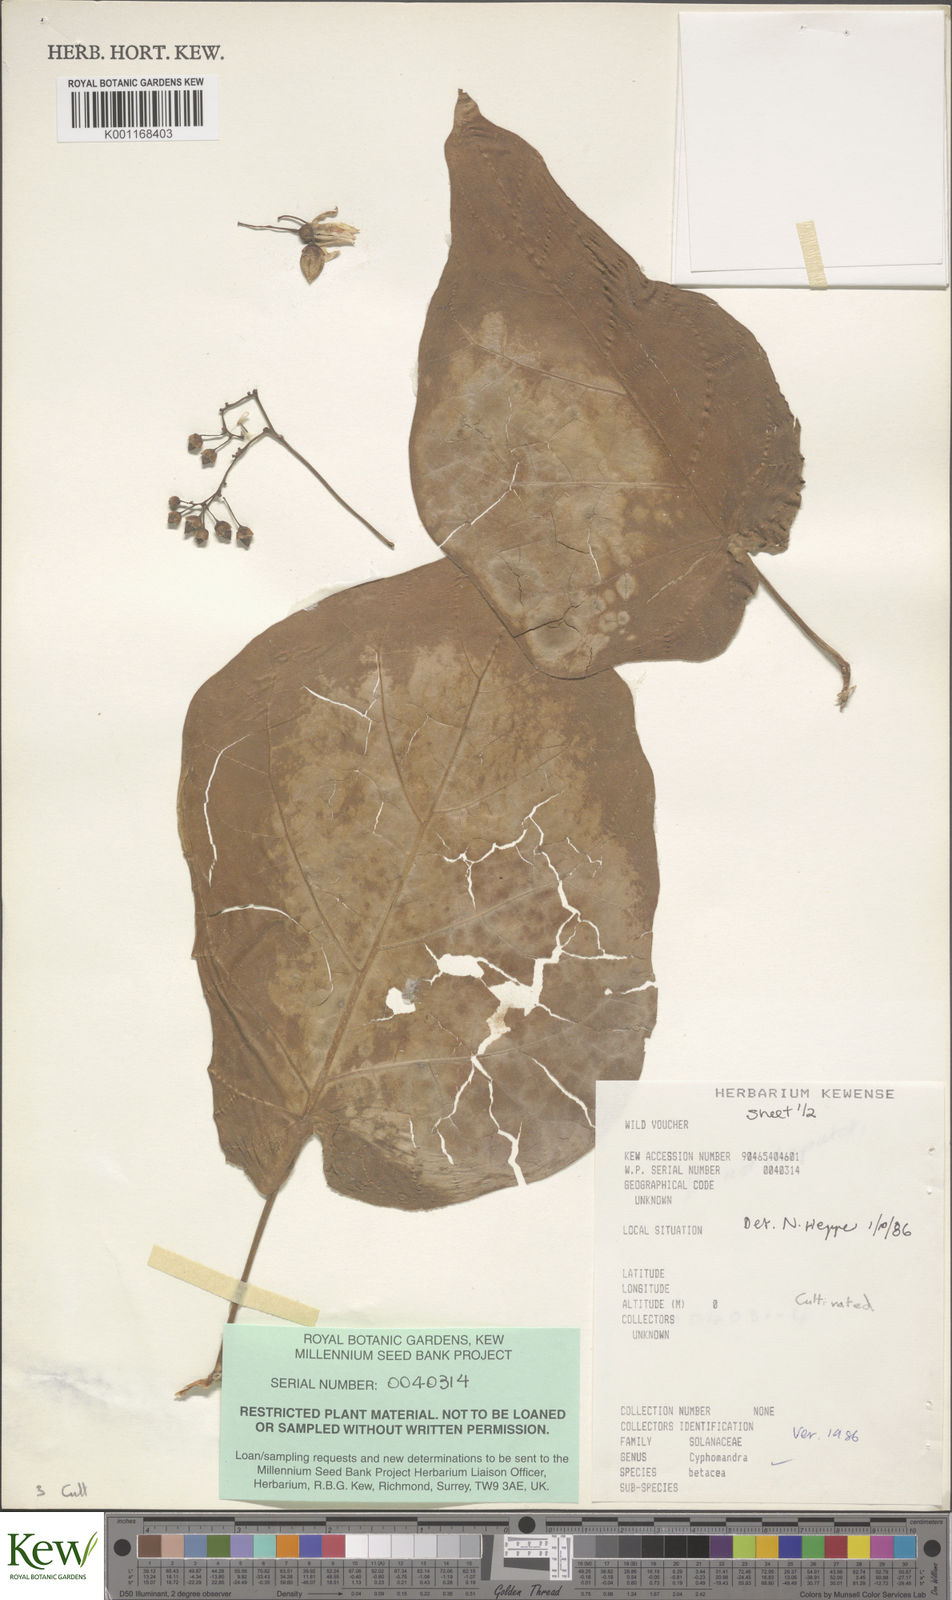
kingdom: Plantae
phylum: Tracheophyta
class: Magnoliopsida
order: Solanales
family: Solanaceae
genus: Solanum
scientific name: Solanum betaceum
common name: Tamarillo
